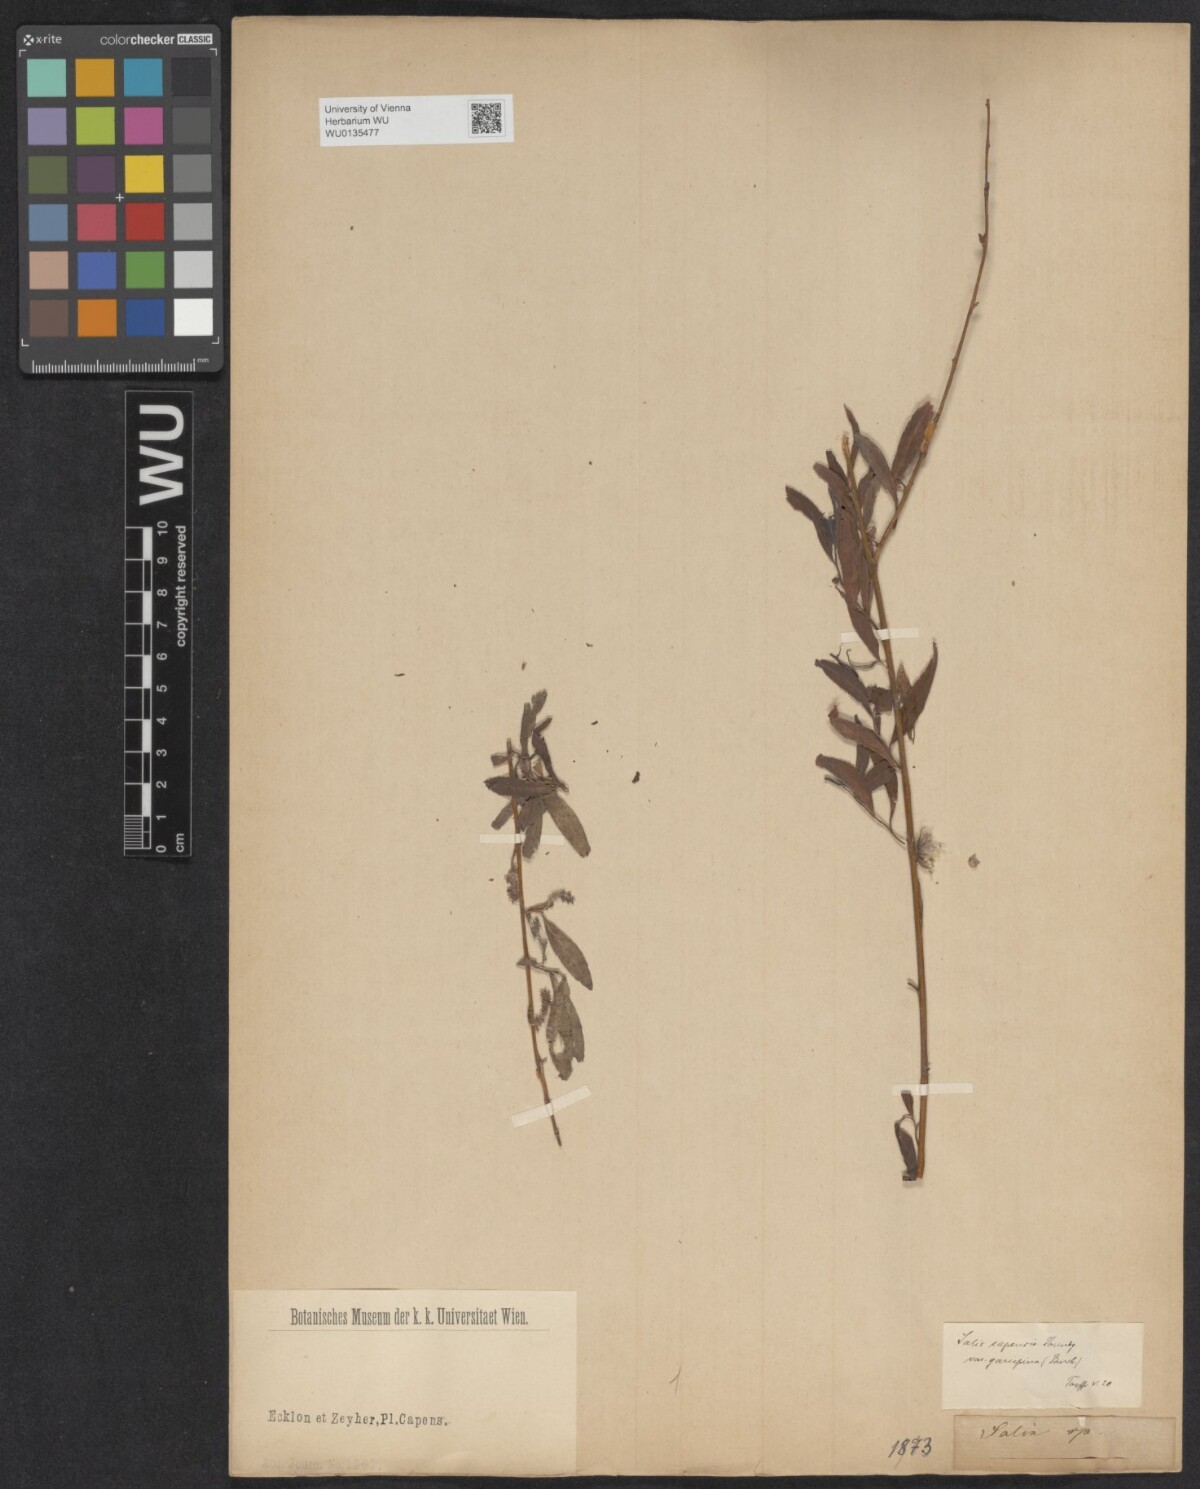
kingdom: Plantae
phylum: Tracheophyta
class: Magnoliopsida
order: Malpighiales
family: Salicaceae
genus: Salix
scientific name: Salix mucronata
